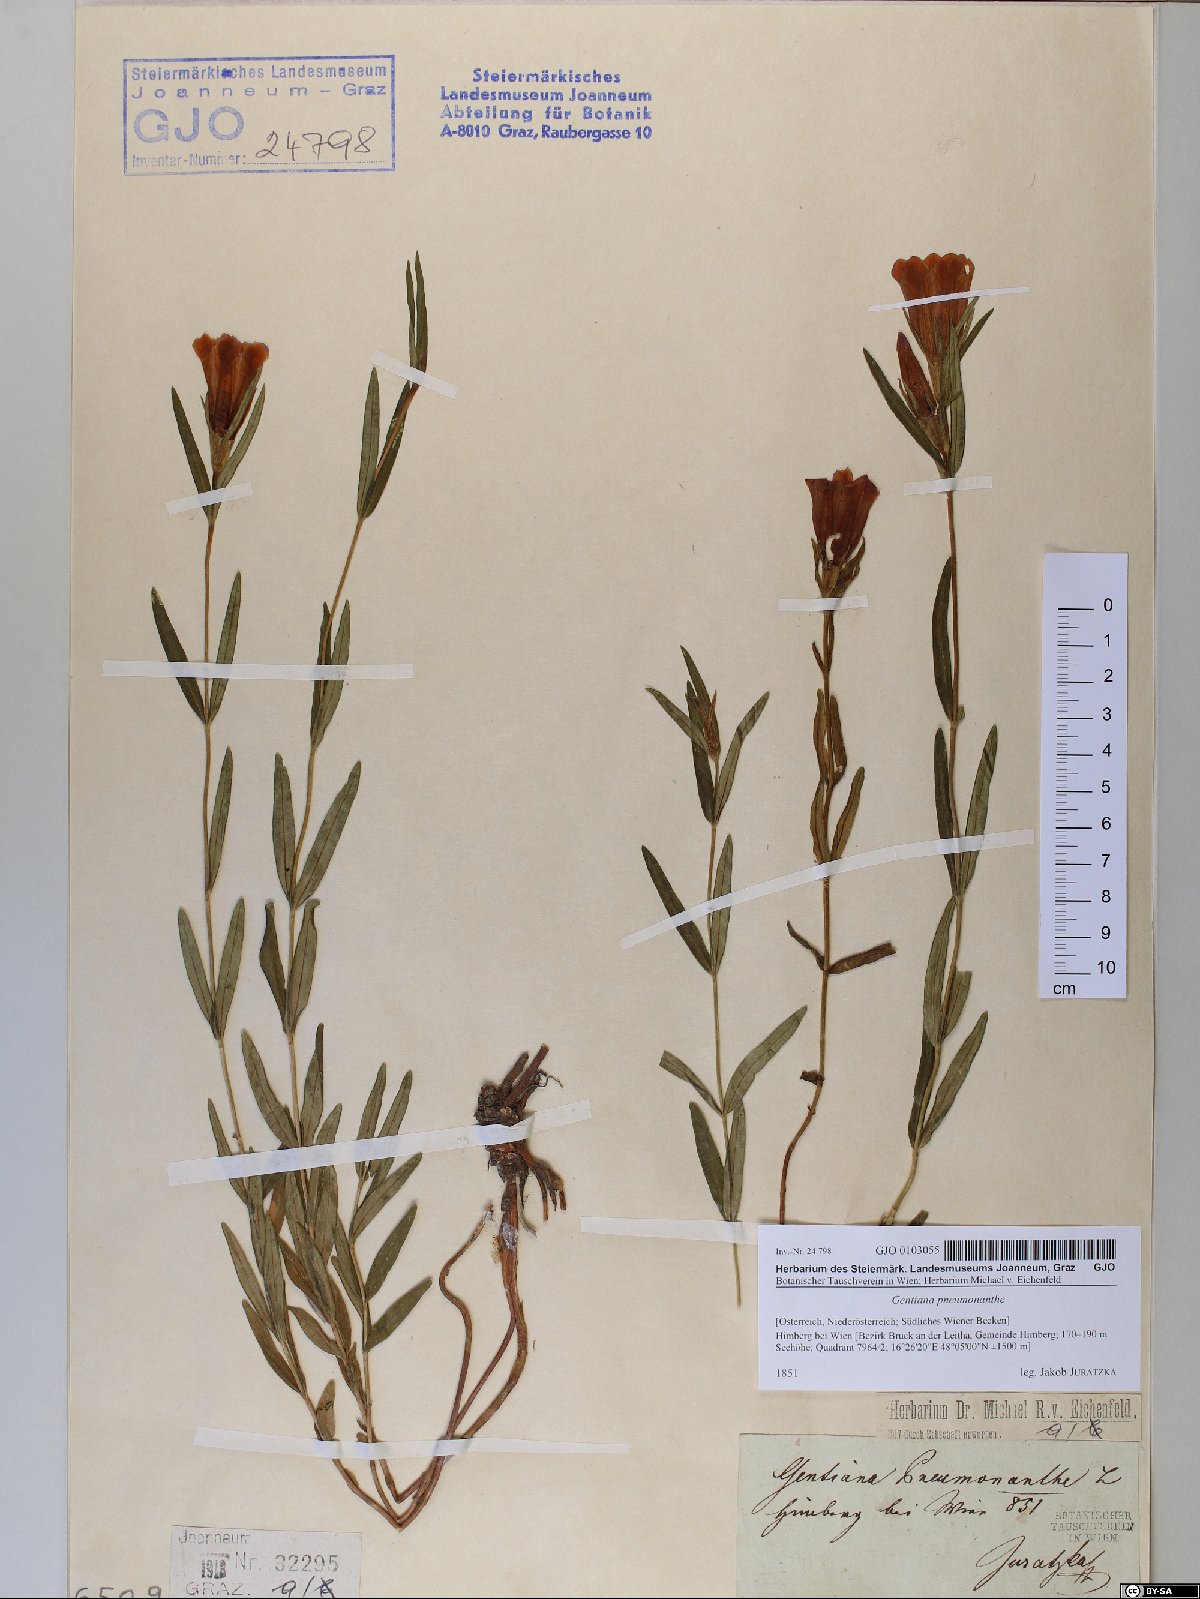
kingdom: Plantae
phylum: Tracheophyta
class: Magnoliopsida
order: Gentianales
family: Gentianaceae
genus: Gentiana
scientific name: Gentiana pneumonanthe
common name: Marsh gentian
